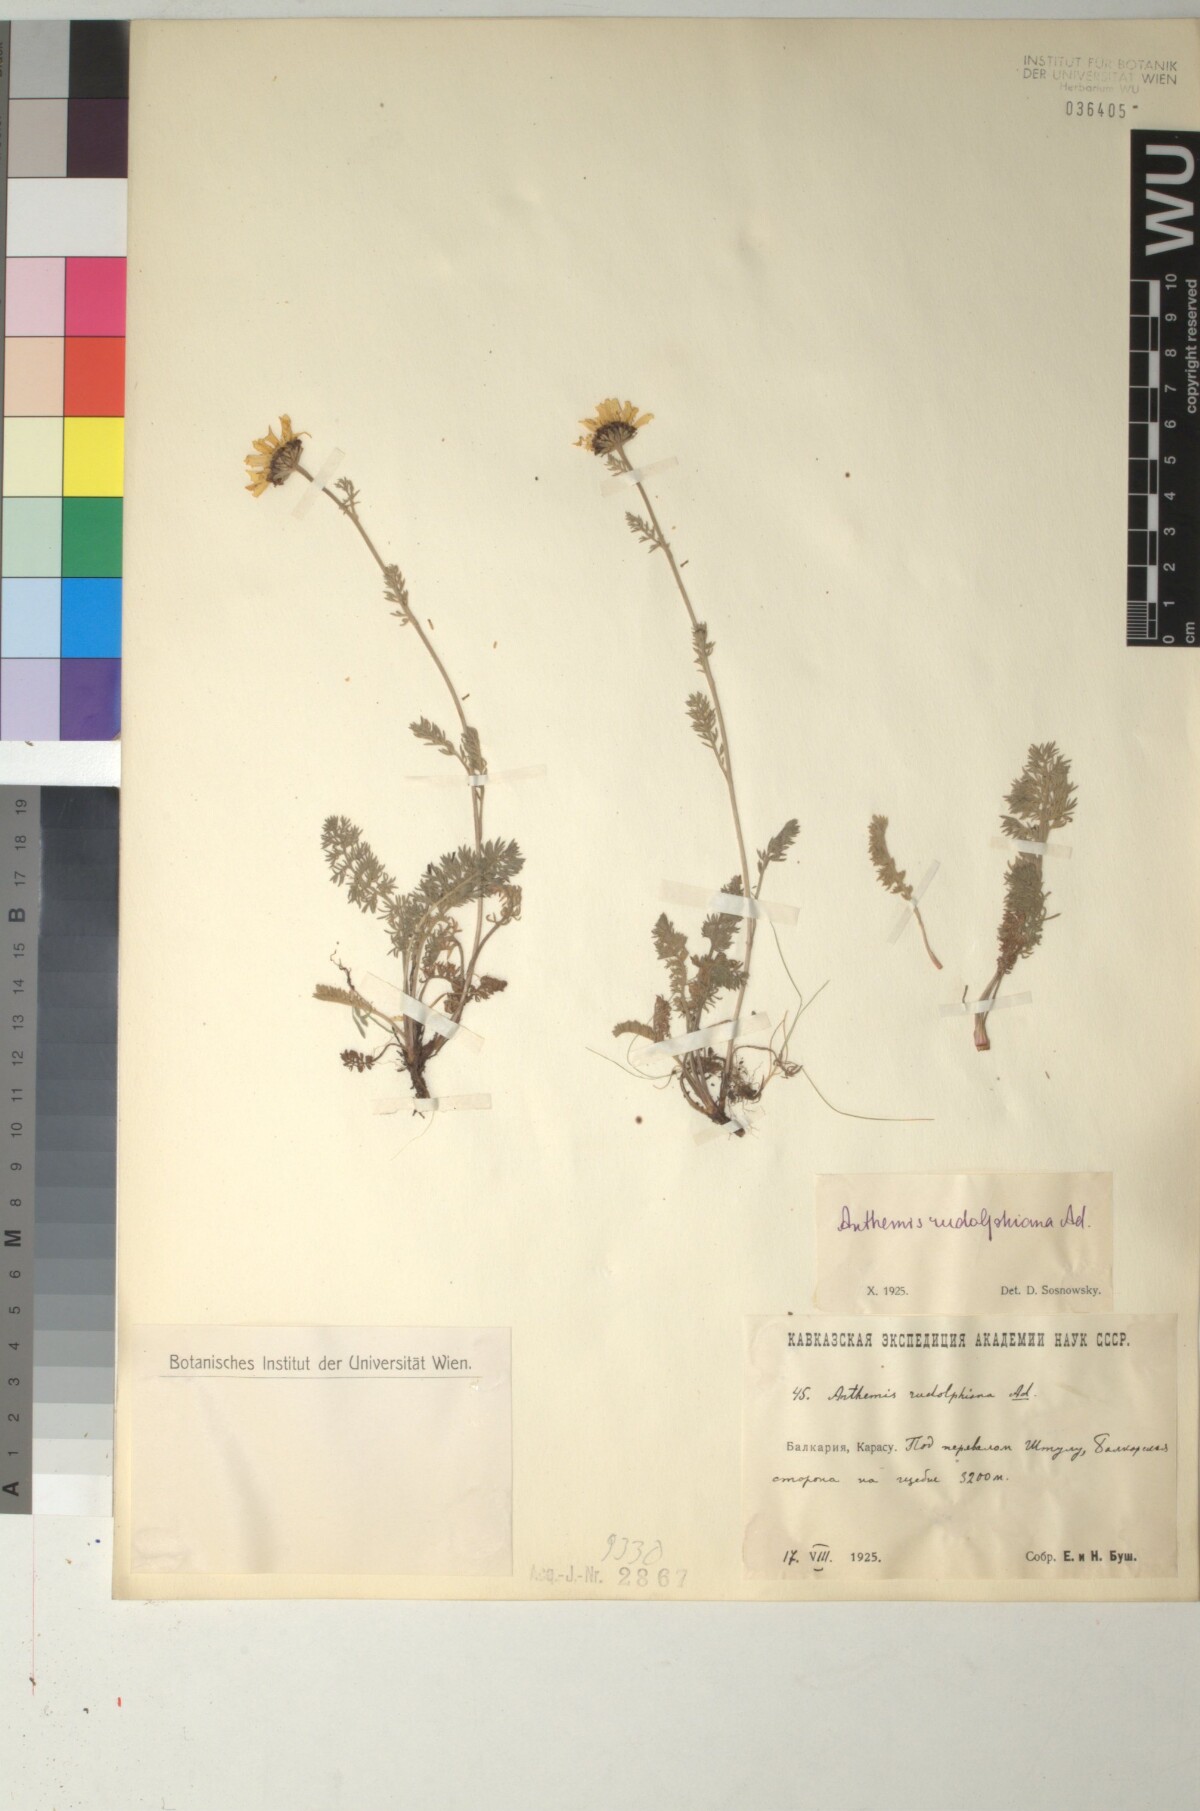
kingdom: Plantae
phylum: Tracheophyta
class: Magnoliopsida
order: Asterales
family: Asteraceae
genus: Archanthemis
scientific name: Archanthemis marschalliana
